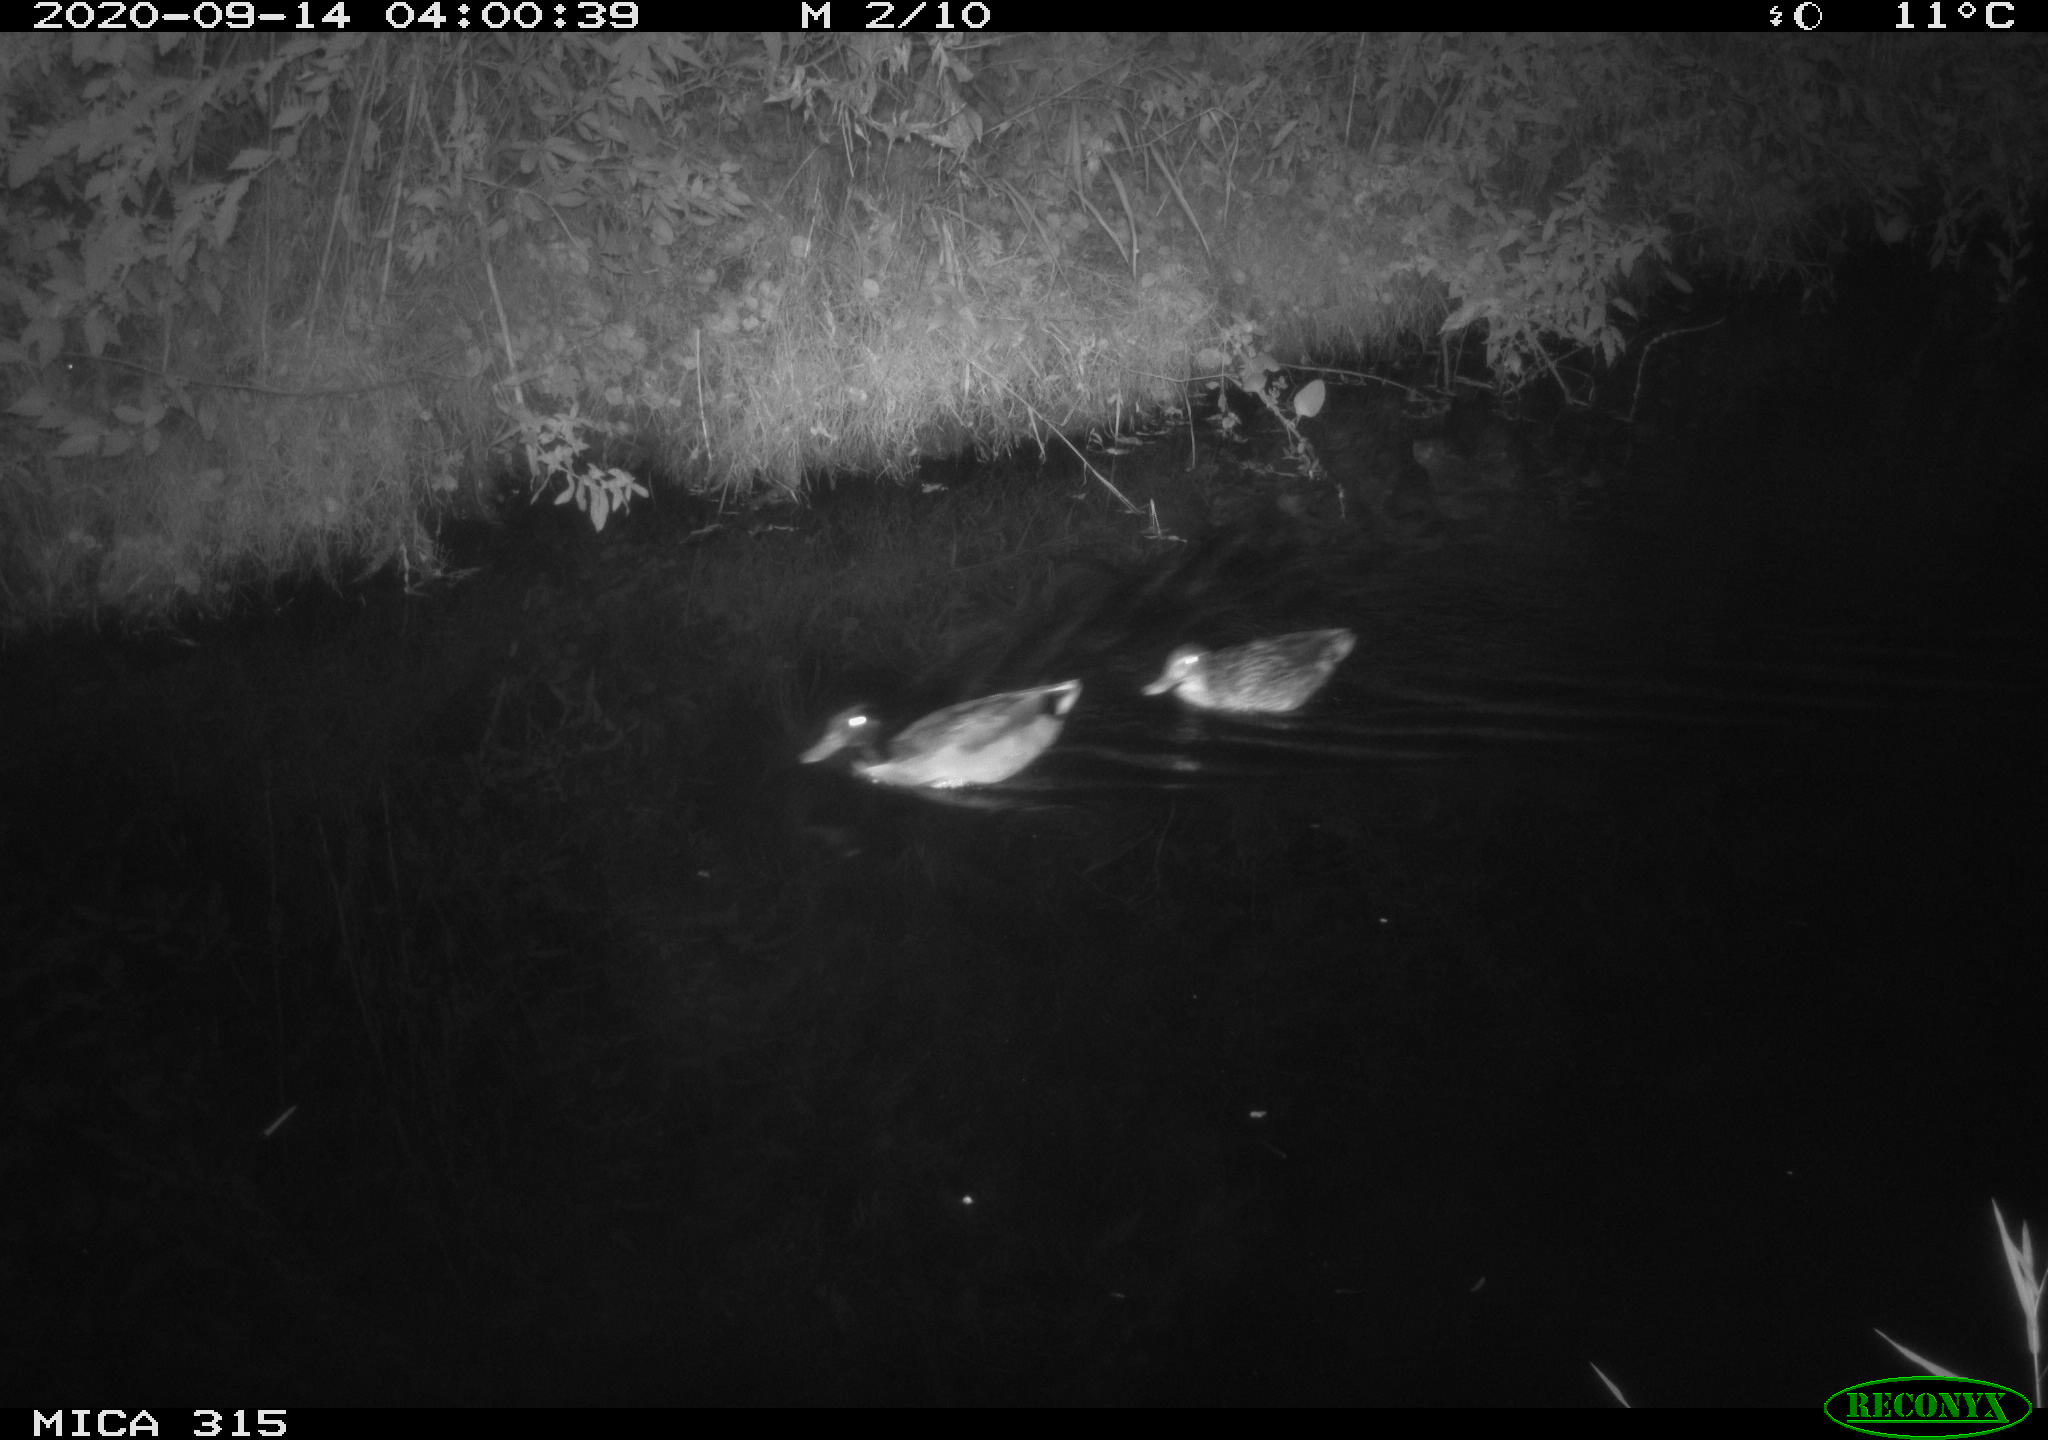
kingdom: Animalia
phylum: Chordata
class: Aves
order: Anseriformes
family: Anatidae
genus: Anas
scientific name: Anas platyrhynchos
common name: Mallard
